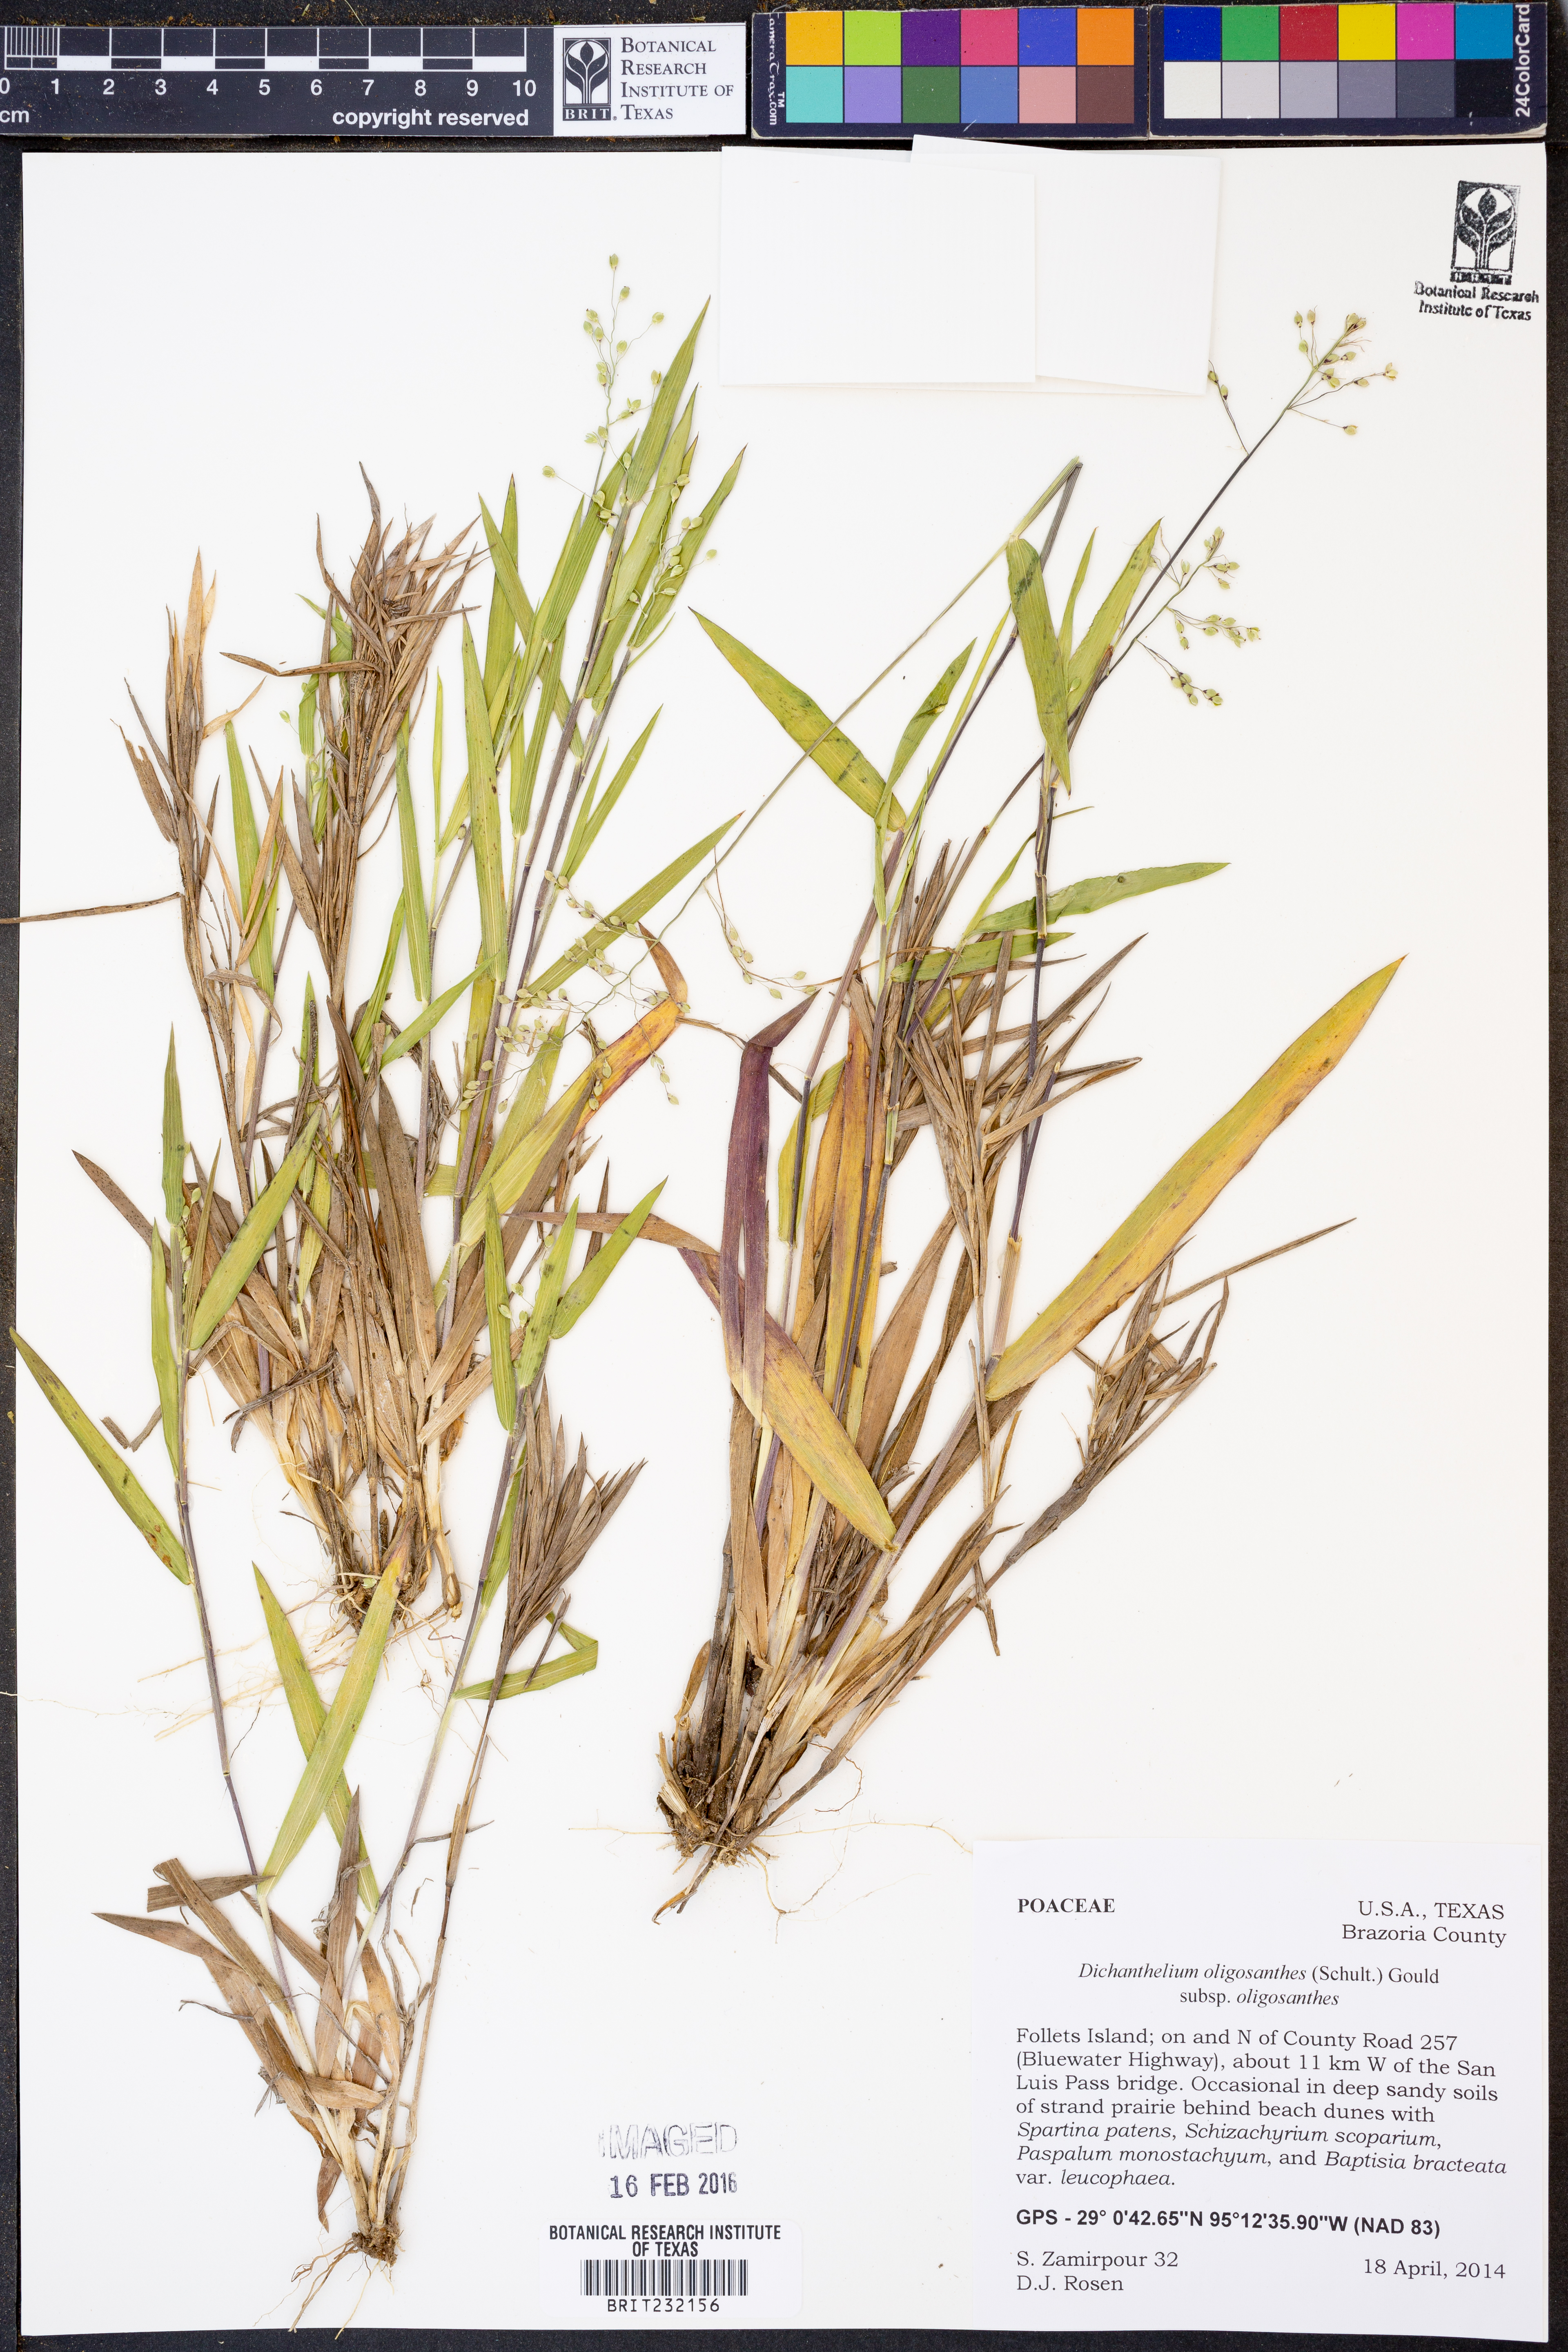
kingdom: Plantae
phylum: Tracheophyta
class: Liliopsida
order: Poales
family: Poaceae
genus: Dichanthelium
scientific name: Dichanthelium oligosanthes
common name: Few-anther obscuregrass
